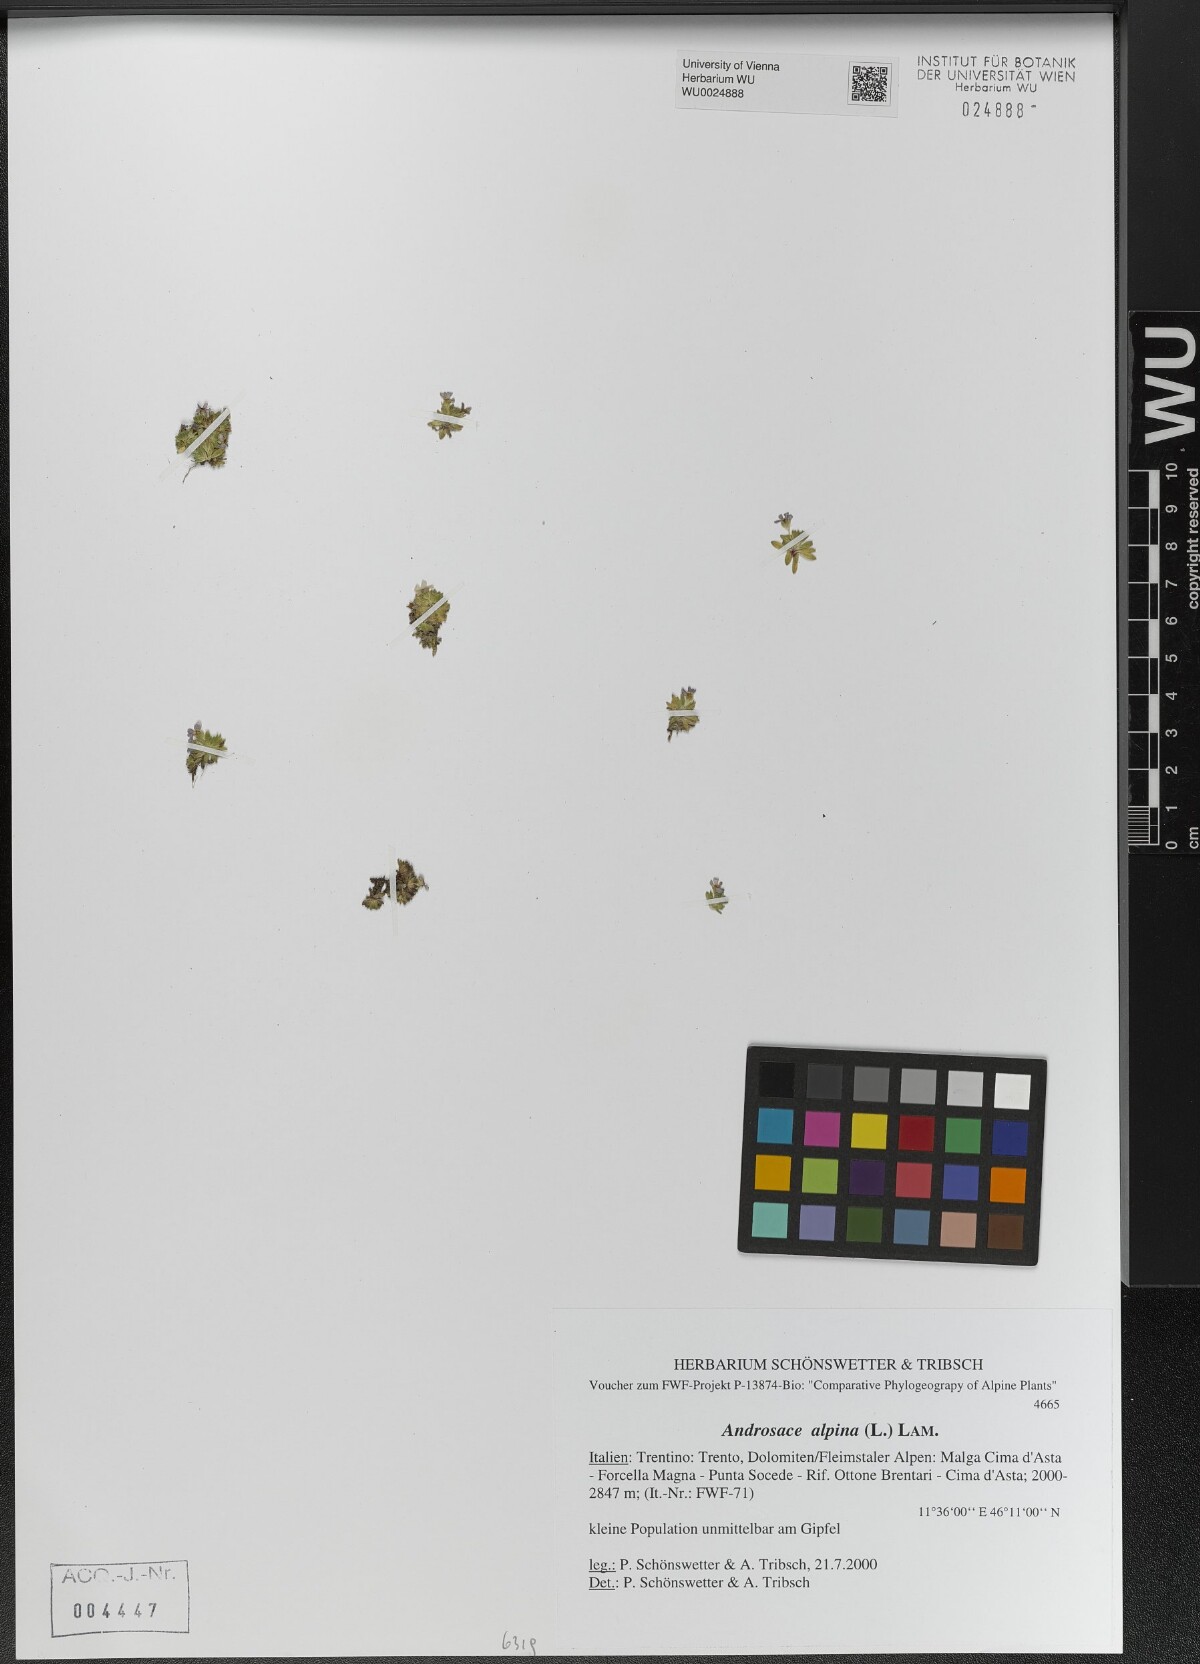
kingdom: Plantae
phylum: Tracheophyta
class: Magnoliopsida
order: Ericales
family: Primulaceae
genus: Androsace
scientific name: Androsace alpina
